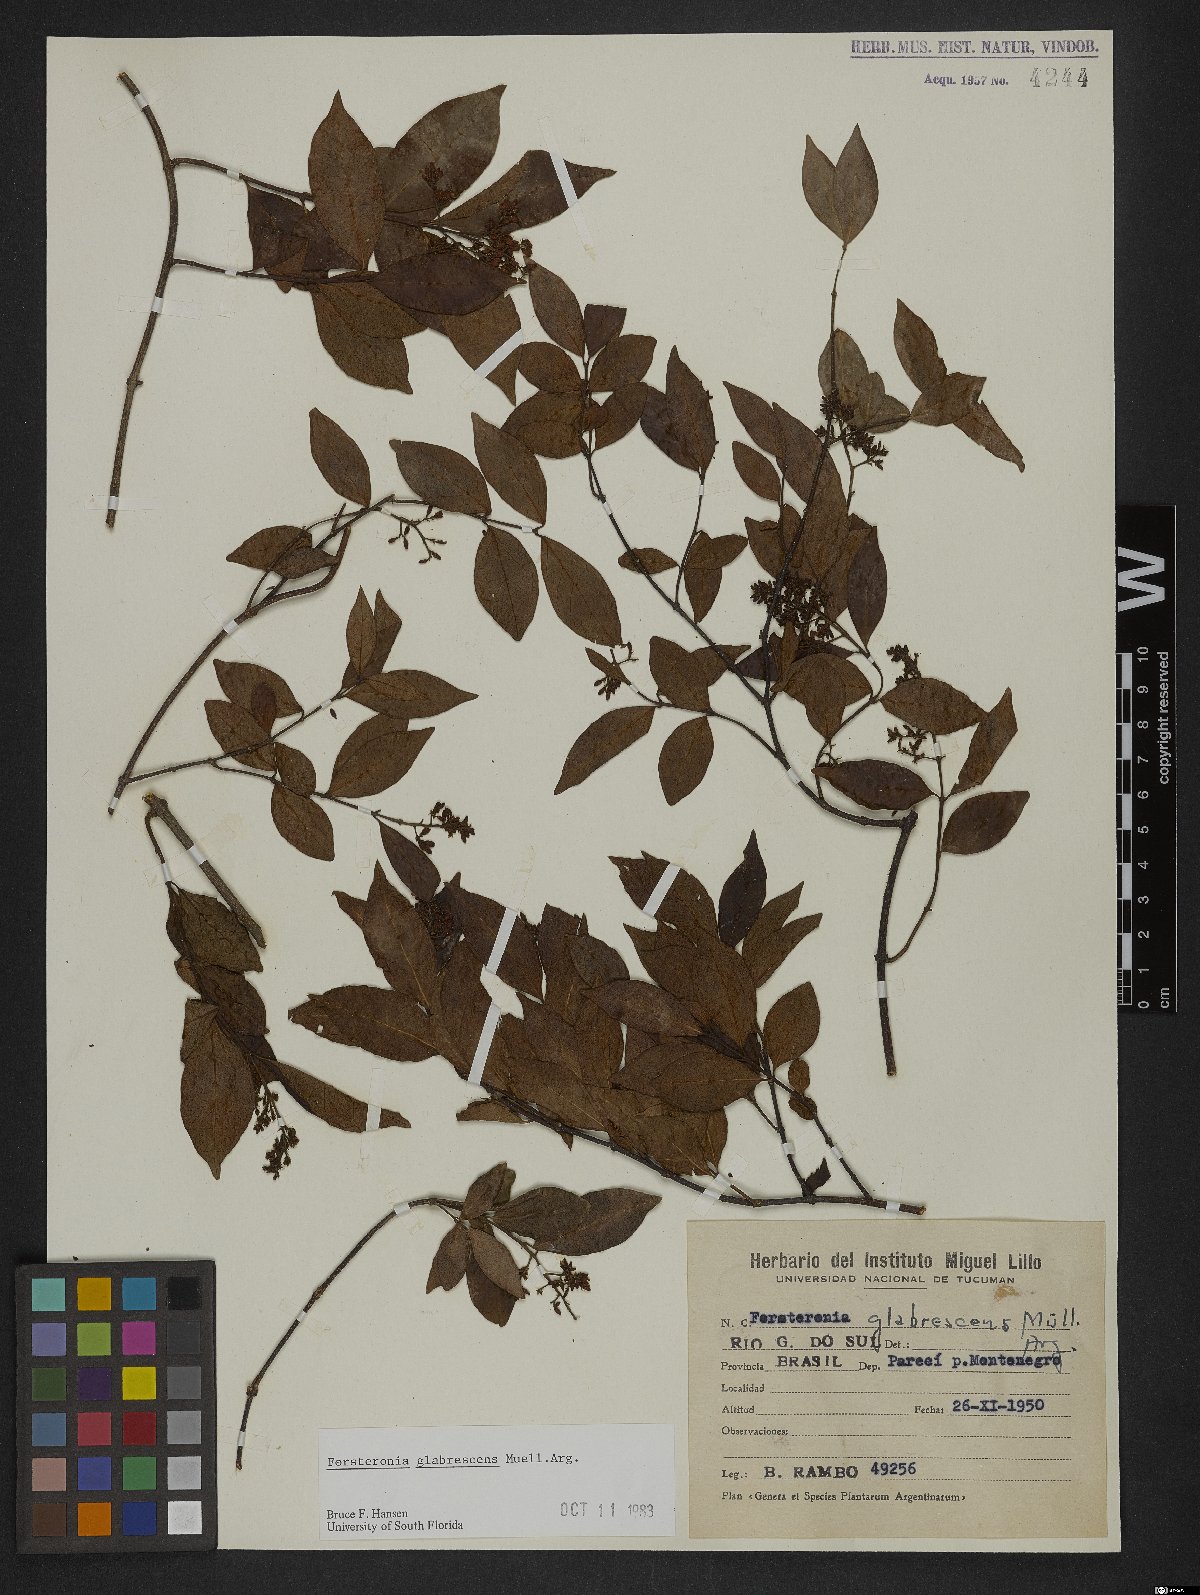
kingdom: Plantae
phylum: Tracheophyta
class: Magnoliopsida
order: Gentianales
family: Apocynaceae
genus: Forsteronia
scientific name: Forsteronia glabrescens
